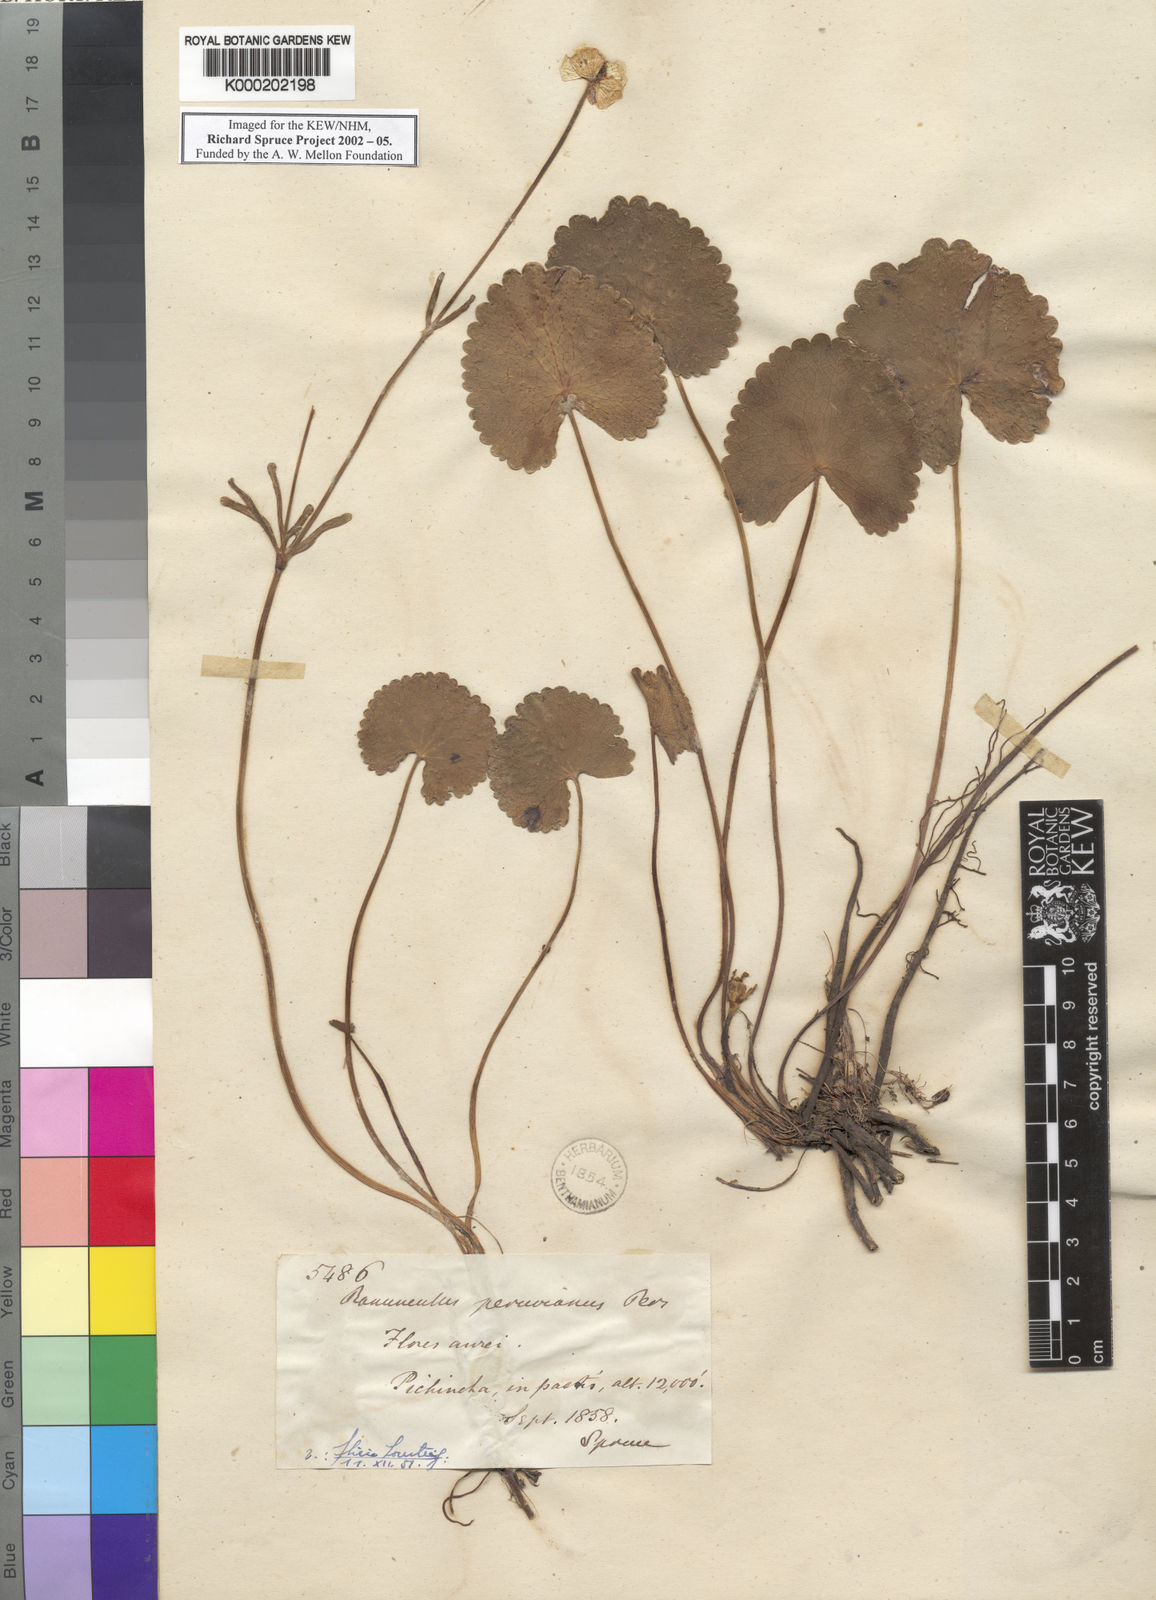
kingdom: Plantae
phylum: Tracheophyta
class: Magnoliopsida
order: Ranunculales
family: Ranunculaceae
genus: Ranunculus
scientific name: Ranunculus peruvianus
